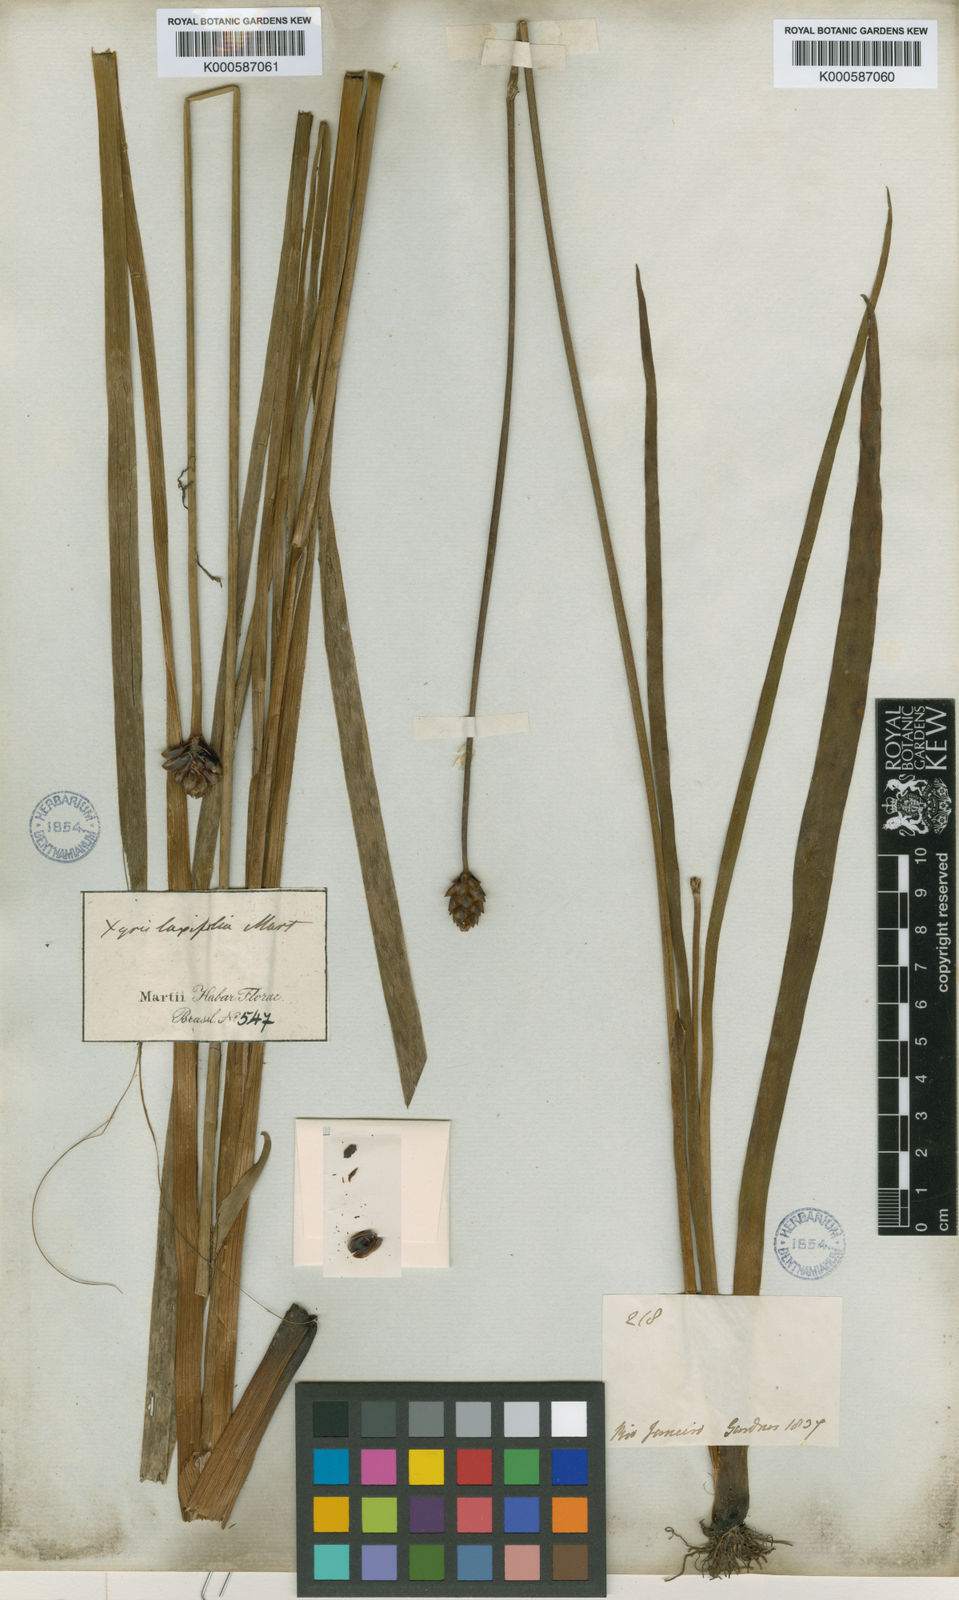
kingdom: Plantae
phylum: Tracheophyta
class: Liliopsida
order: Poales
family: Xyridaceae
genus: Xyris
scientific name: Xyris jupicai
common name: Richard's yelloweyed grass
